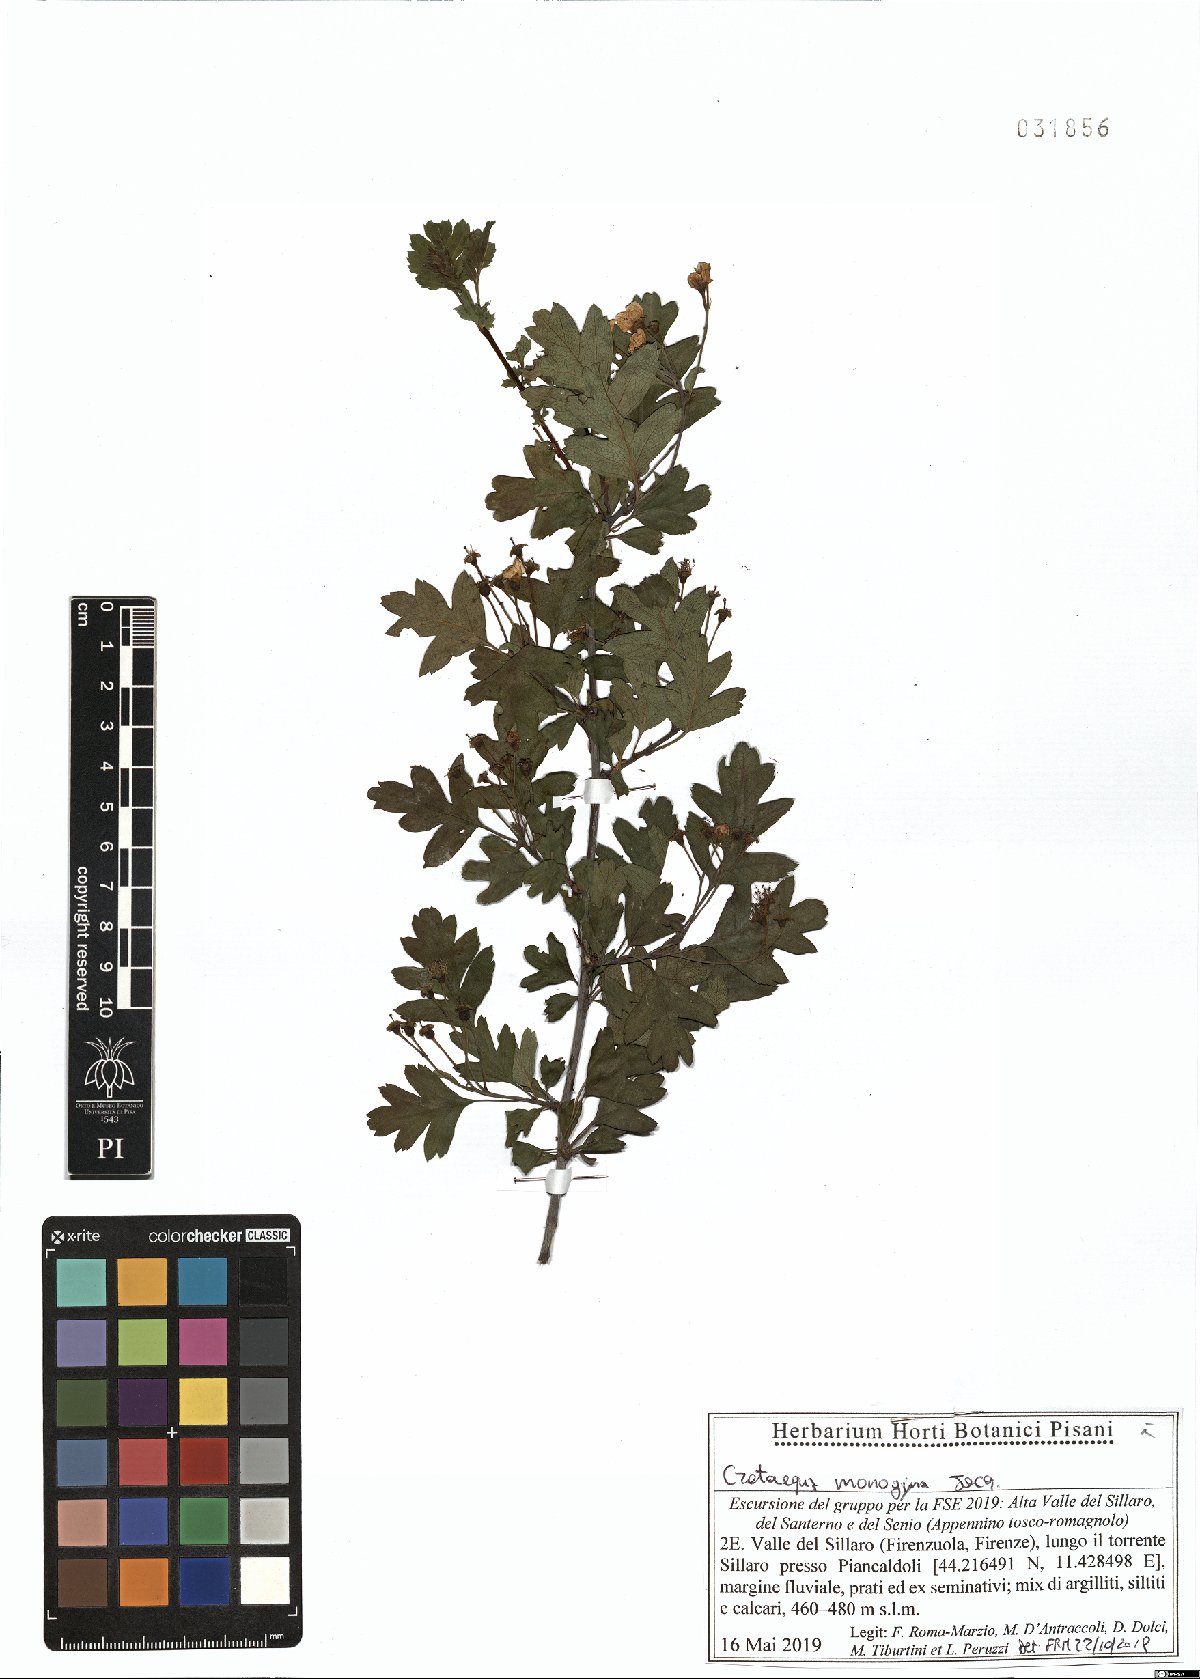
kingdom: Plantae
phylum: Tracheophyta
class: Magnoliopsida
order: Rosales
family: Rosaceae
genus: Crataegus
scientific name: Crataegus monogyna
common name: Hawthorn
